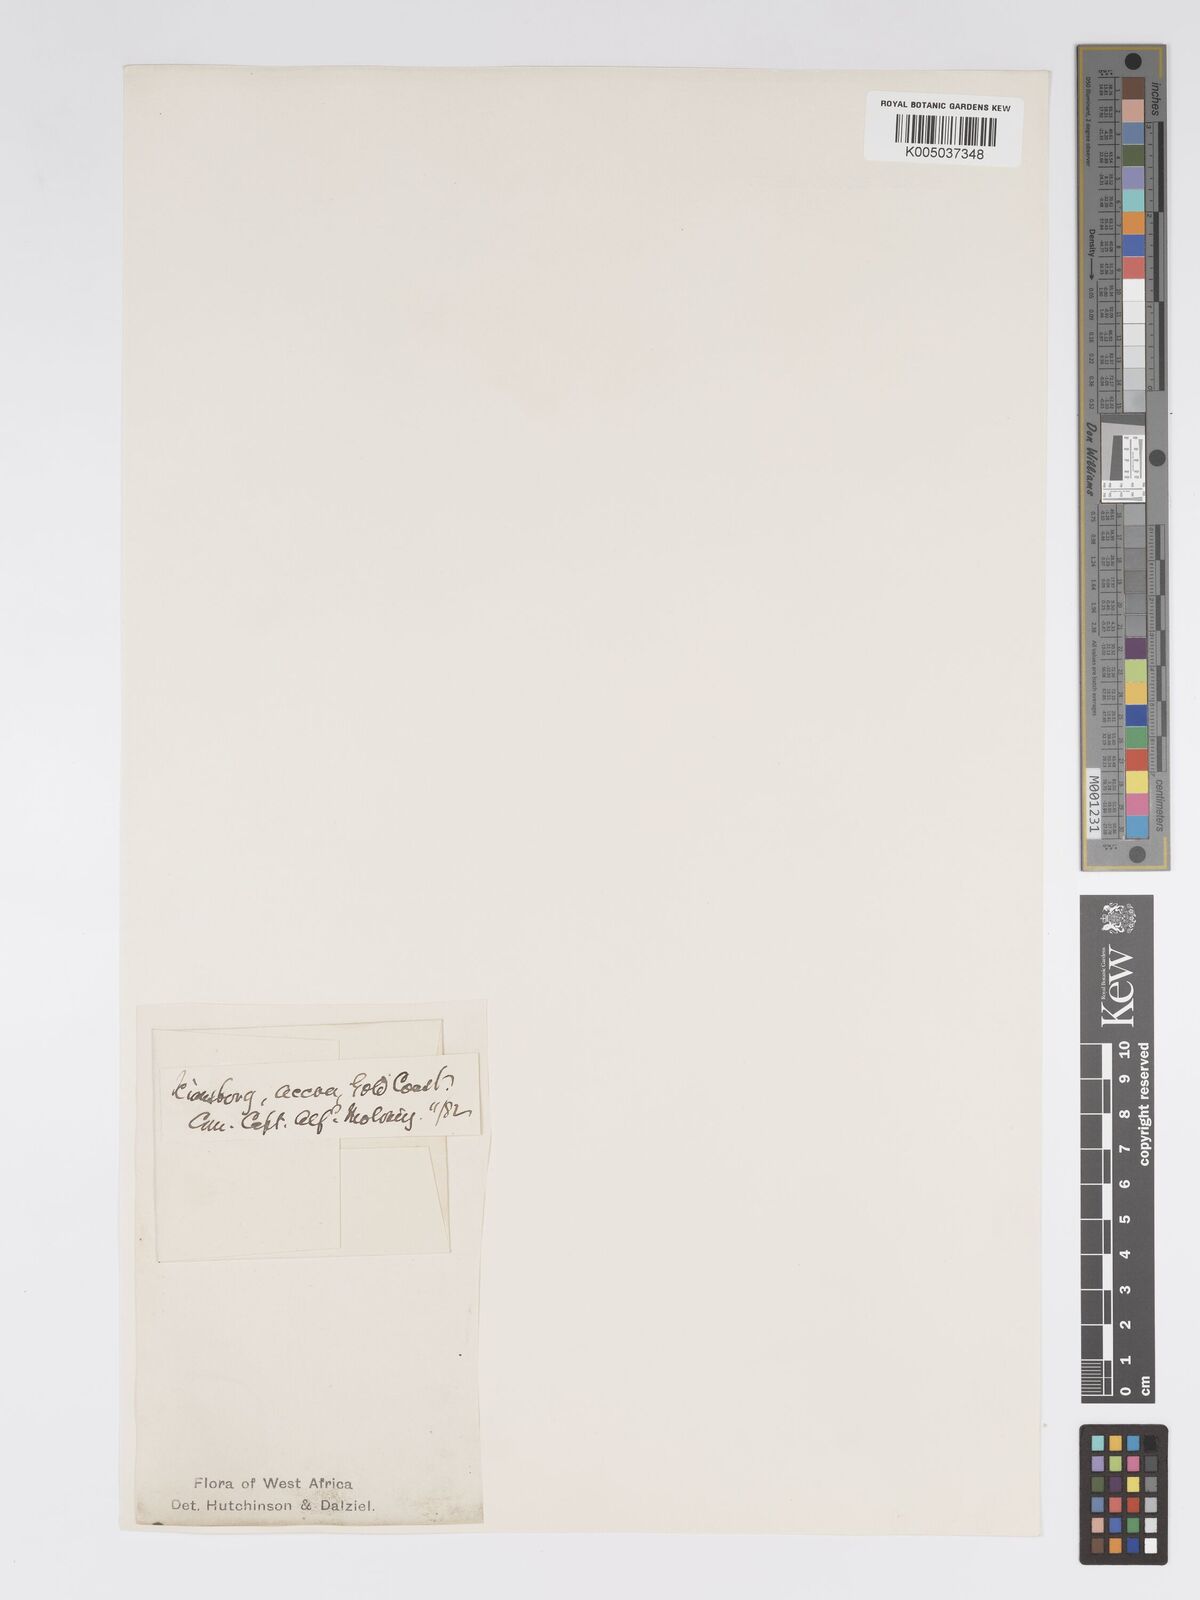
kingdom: Plantae
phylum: Tracheophyta
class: Magnoliopsida
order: Malpighiales
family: Passifloraceae
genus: Passiflora
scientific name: Passiflora foetida
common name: Fetid passionflower
